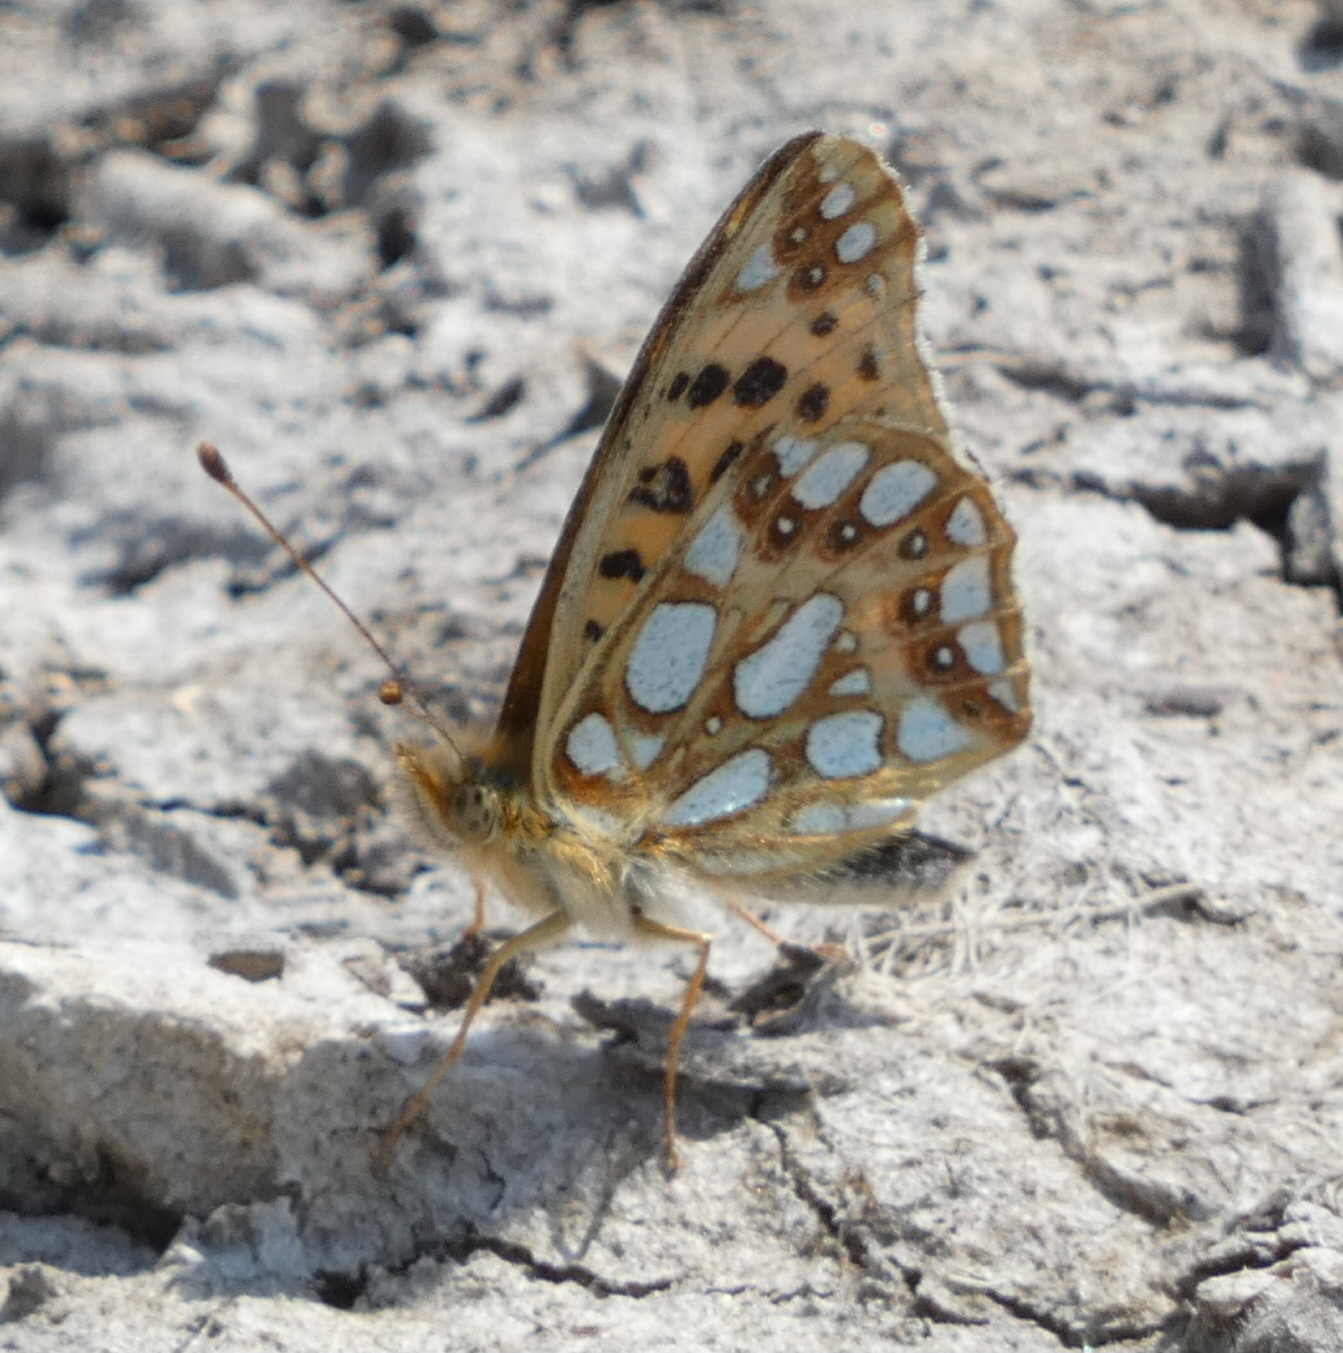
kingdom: Animalia
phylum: Arthropoda
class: Insecta
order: Lepidoptera
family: Nymphalidae
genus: Issoria
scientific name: Issoria lathonia
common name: Storplettet perlemorsommerfugl
